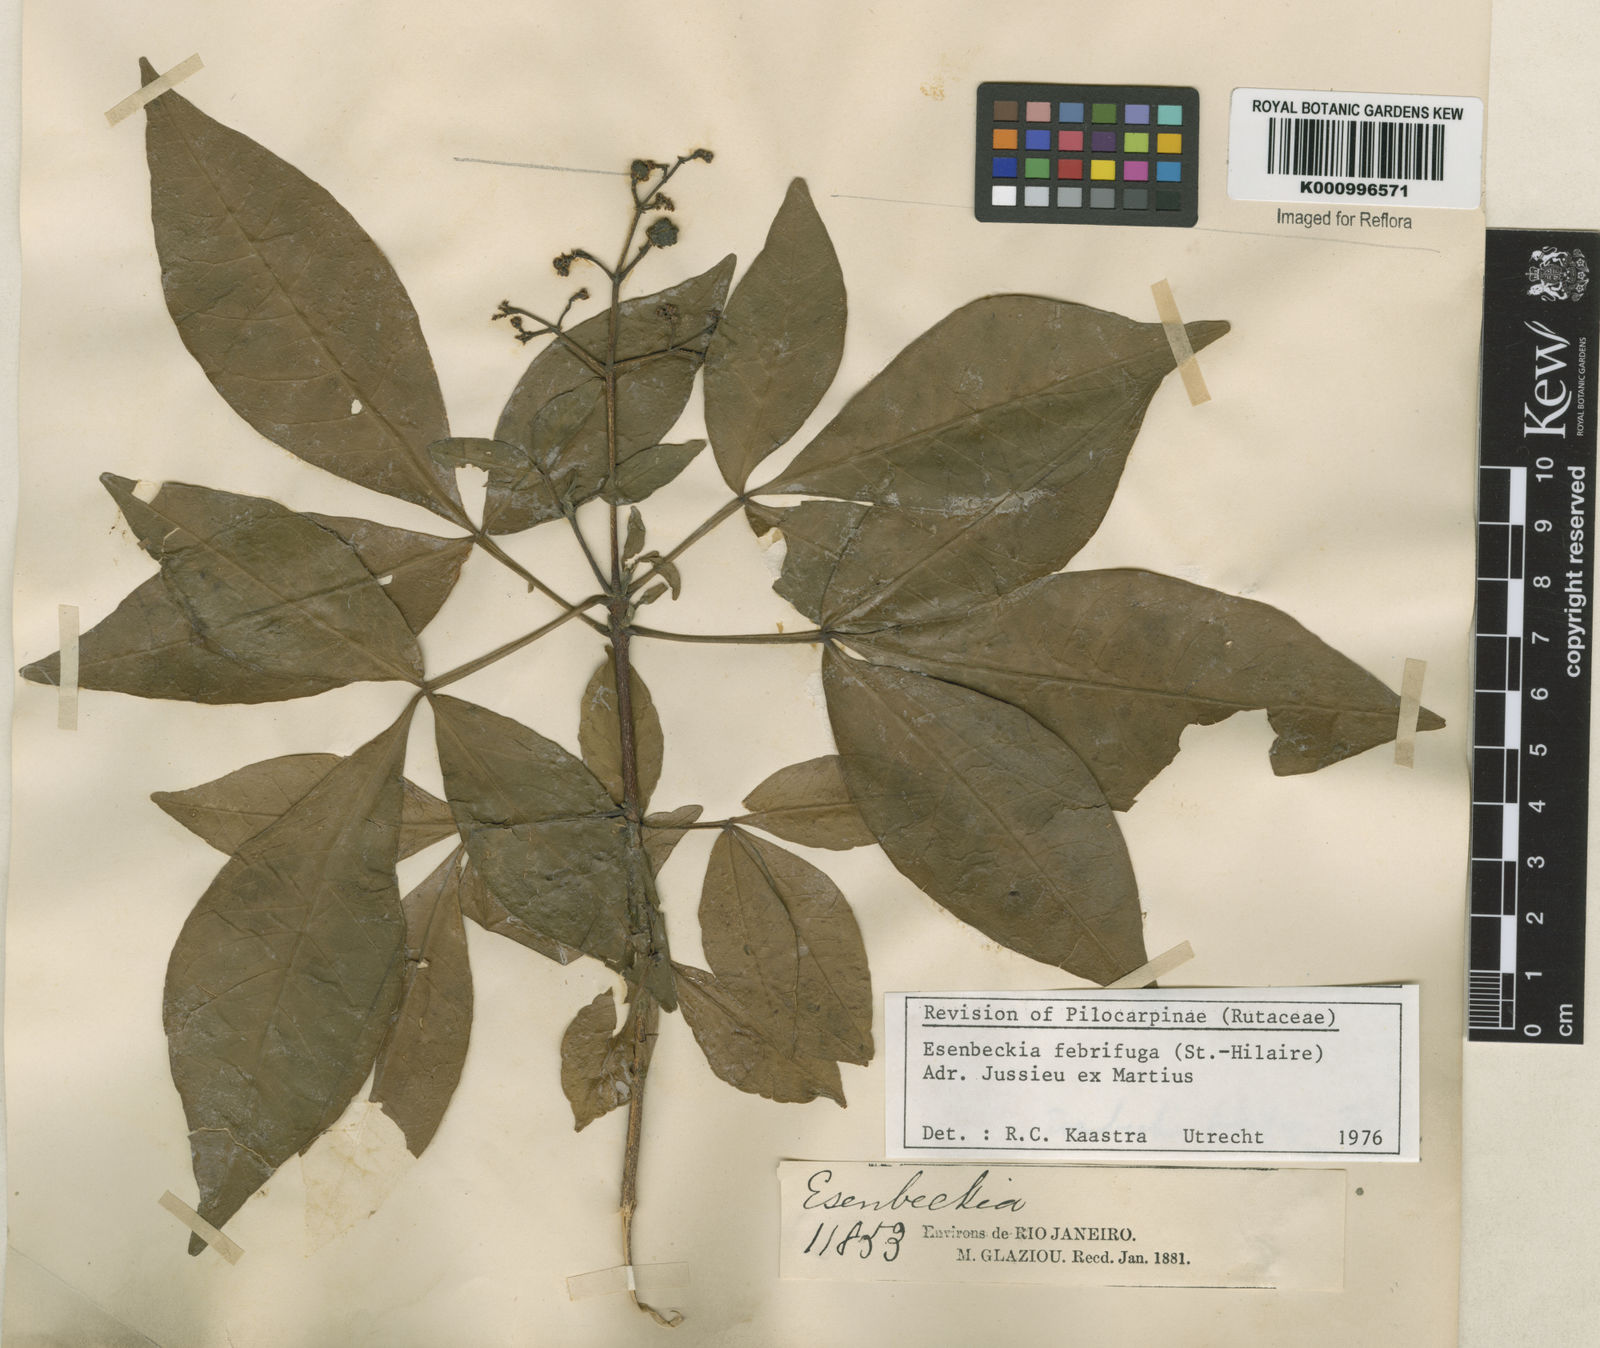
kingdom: Plantae
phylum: Tracheophyta
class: Magnoliopsida
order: Sapindales
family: Rutaceae
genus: Esenbeckia
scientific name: Esenbeckia febrifuga
